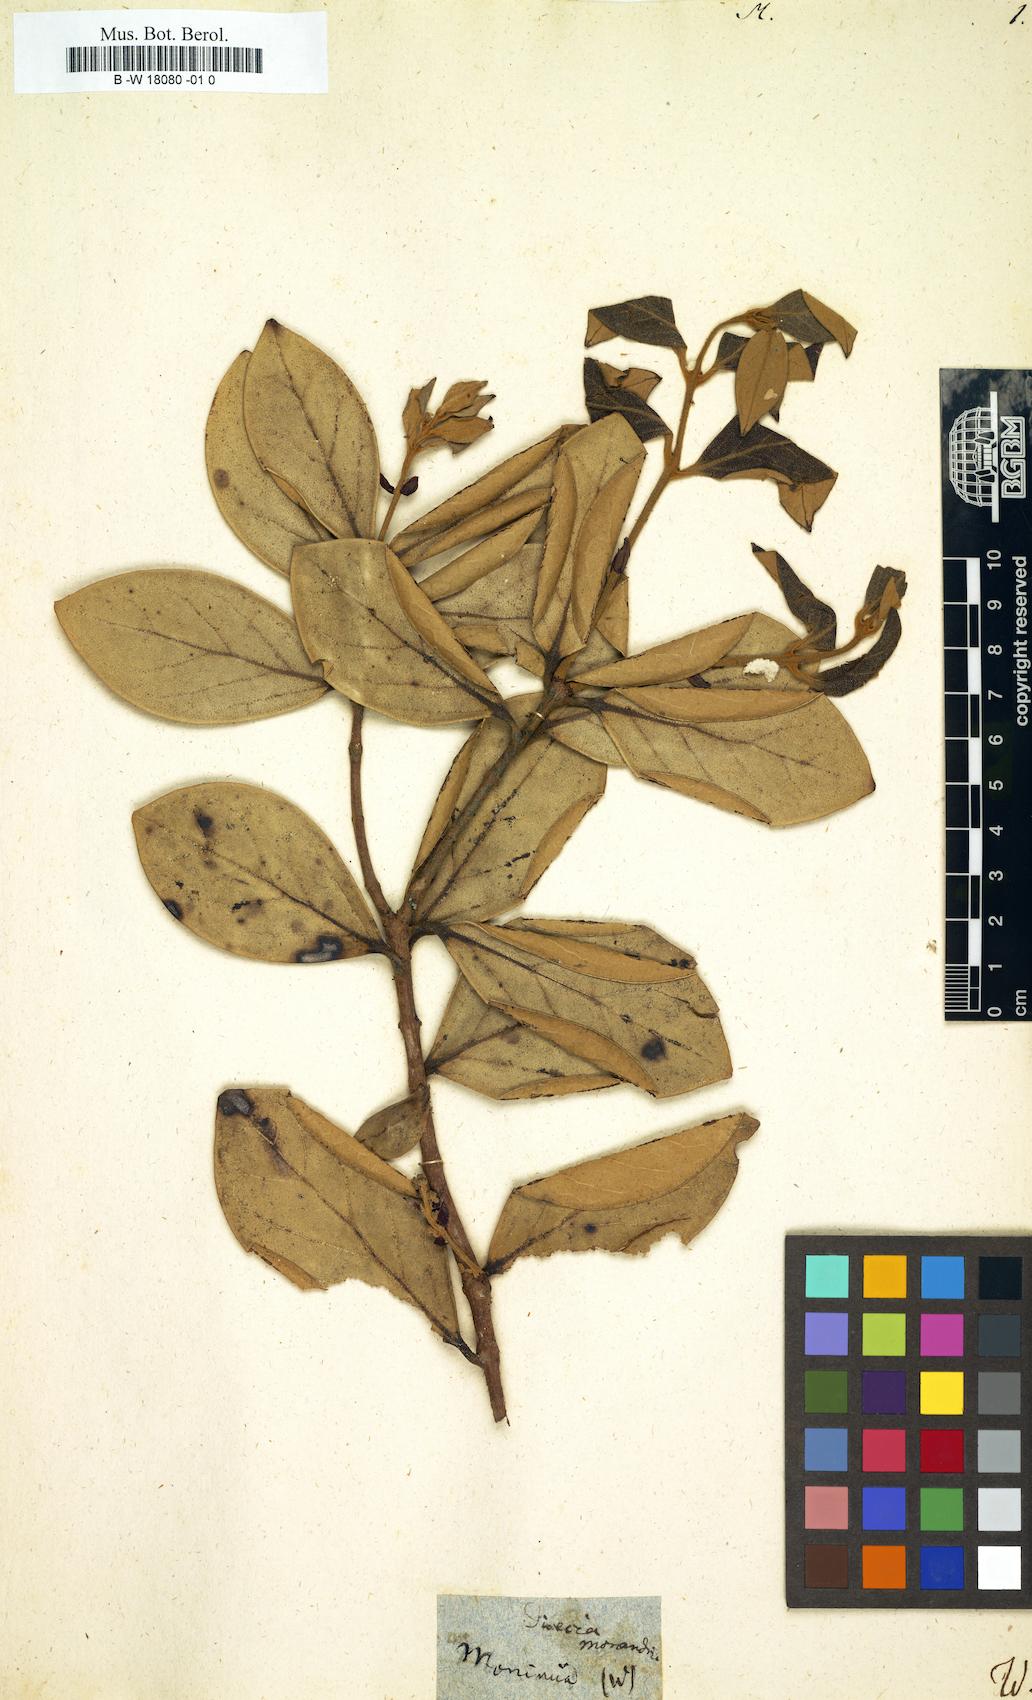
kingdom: Plantae
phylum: Tracheophyta
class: Magnoliopsida
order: Laurales
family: Monimiaceae
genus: Monimia
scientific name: Monimia
